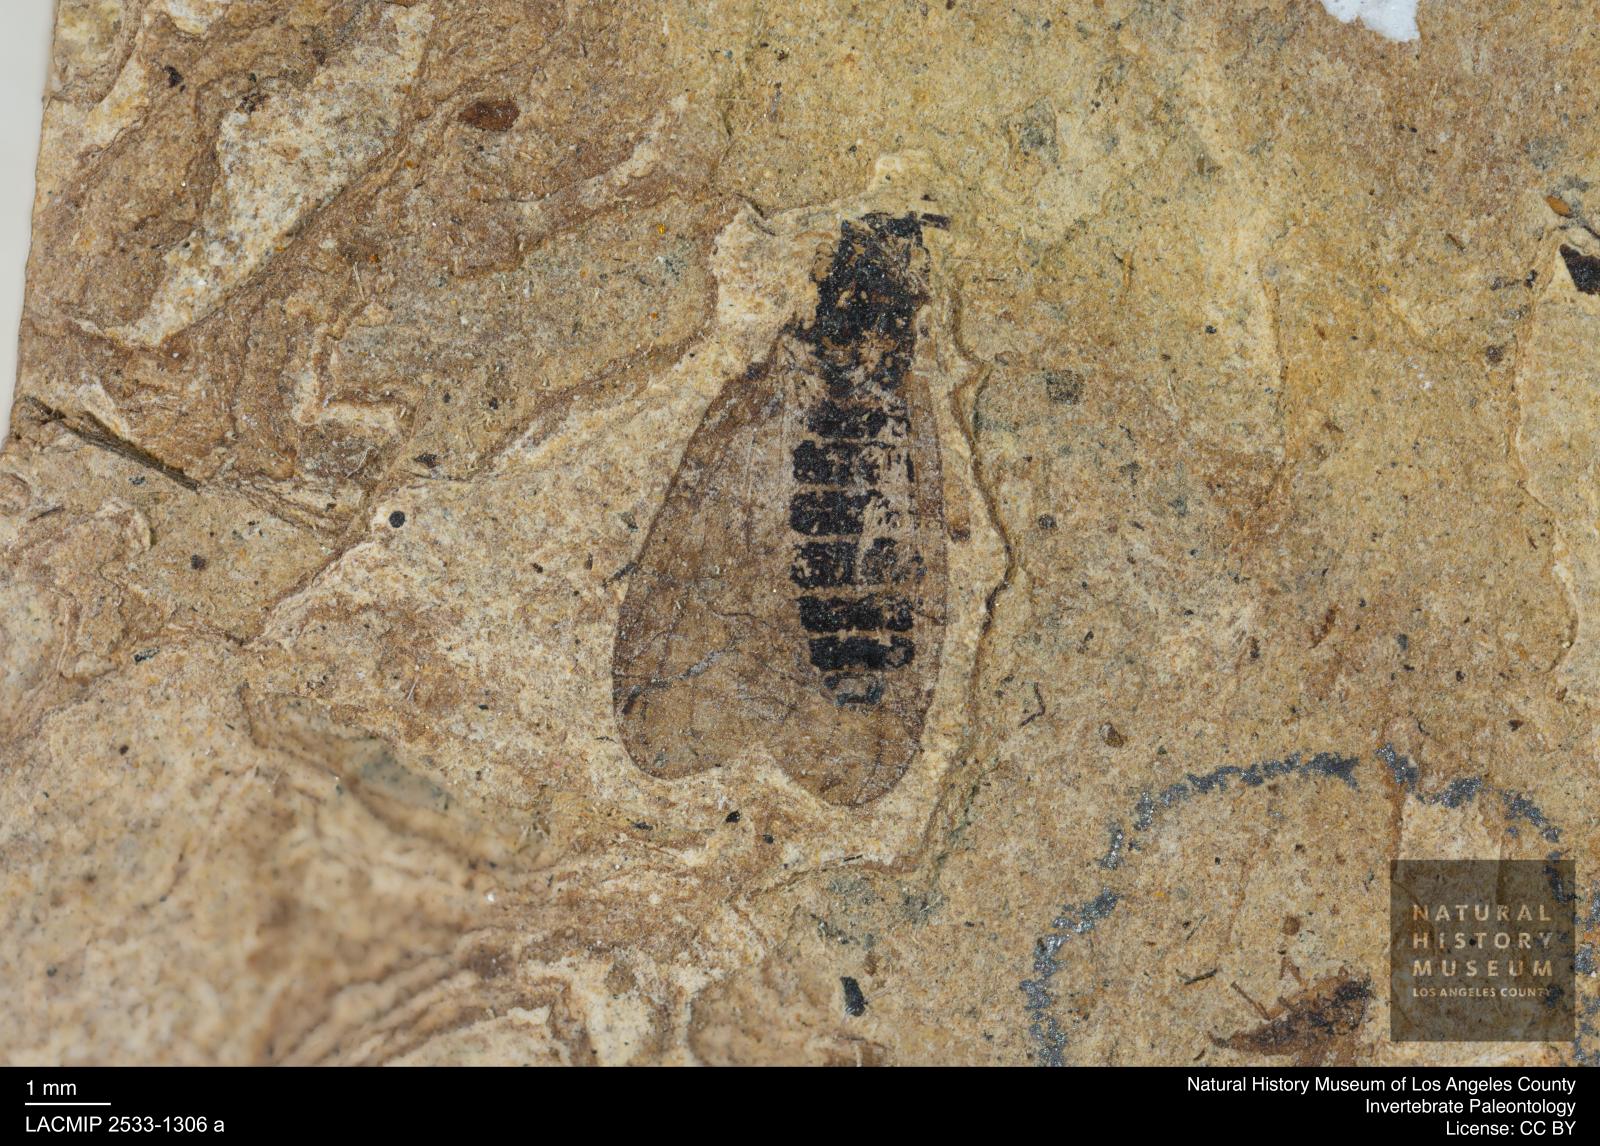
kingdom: Animalia
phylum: Arthropoda
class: Insecta
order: Diptera
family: Bibionidae
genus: Plecia
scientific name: Plecia stygia
